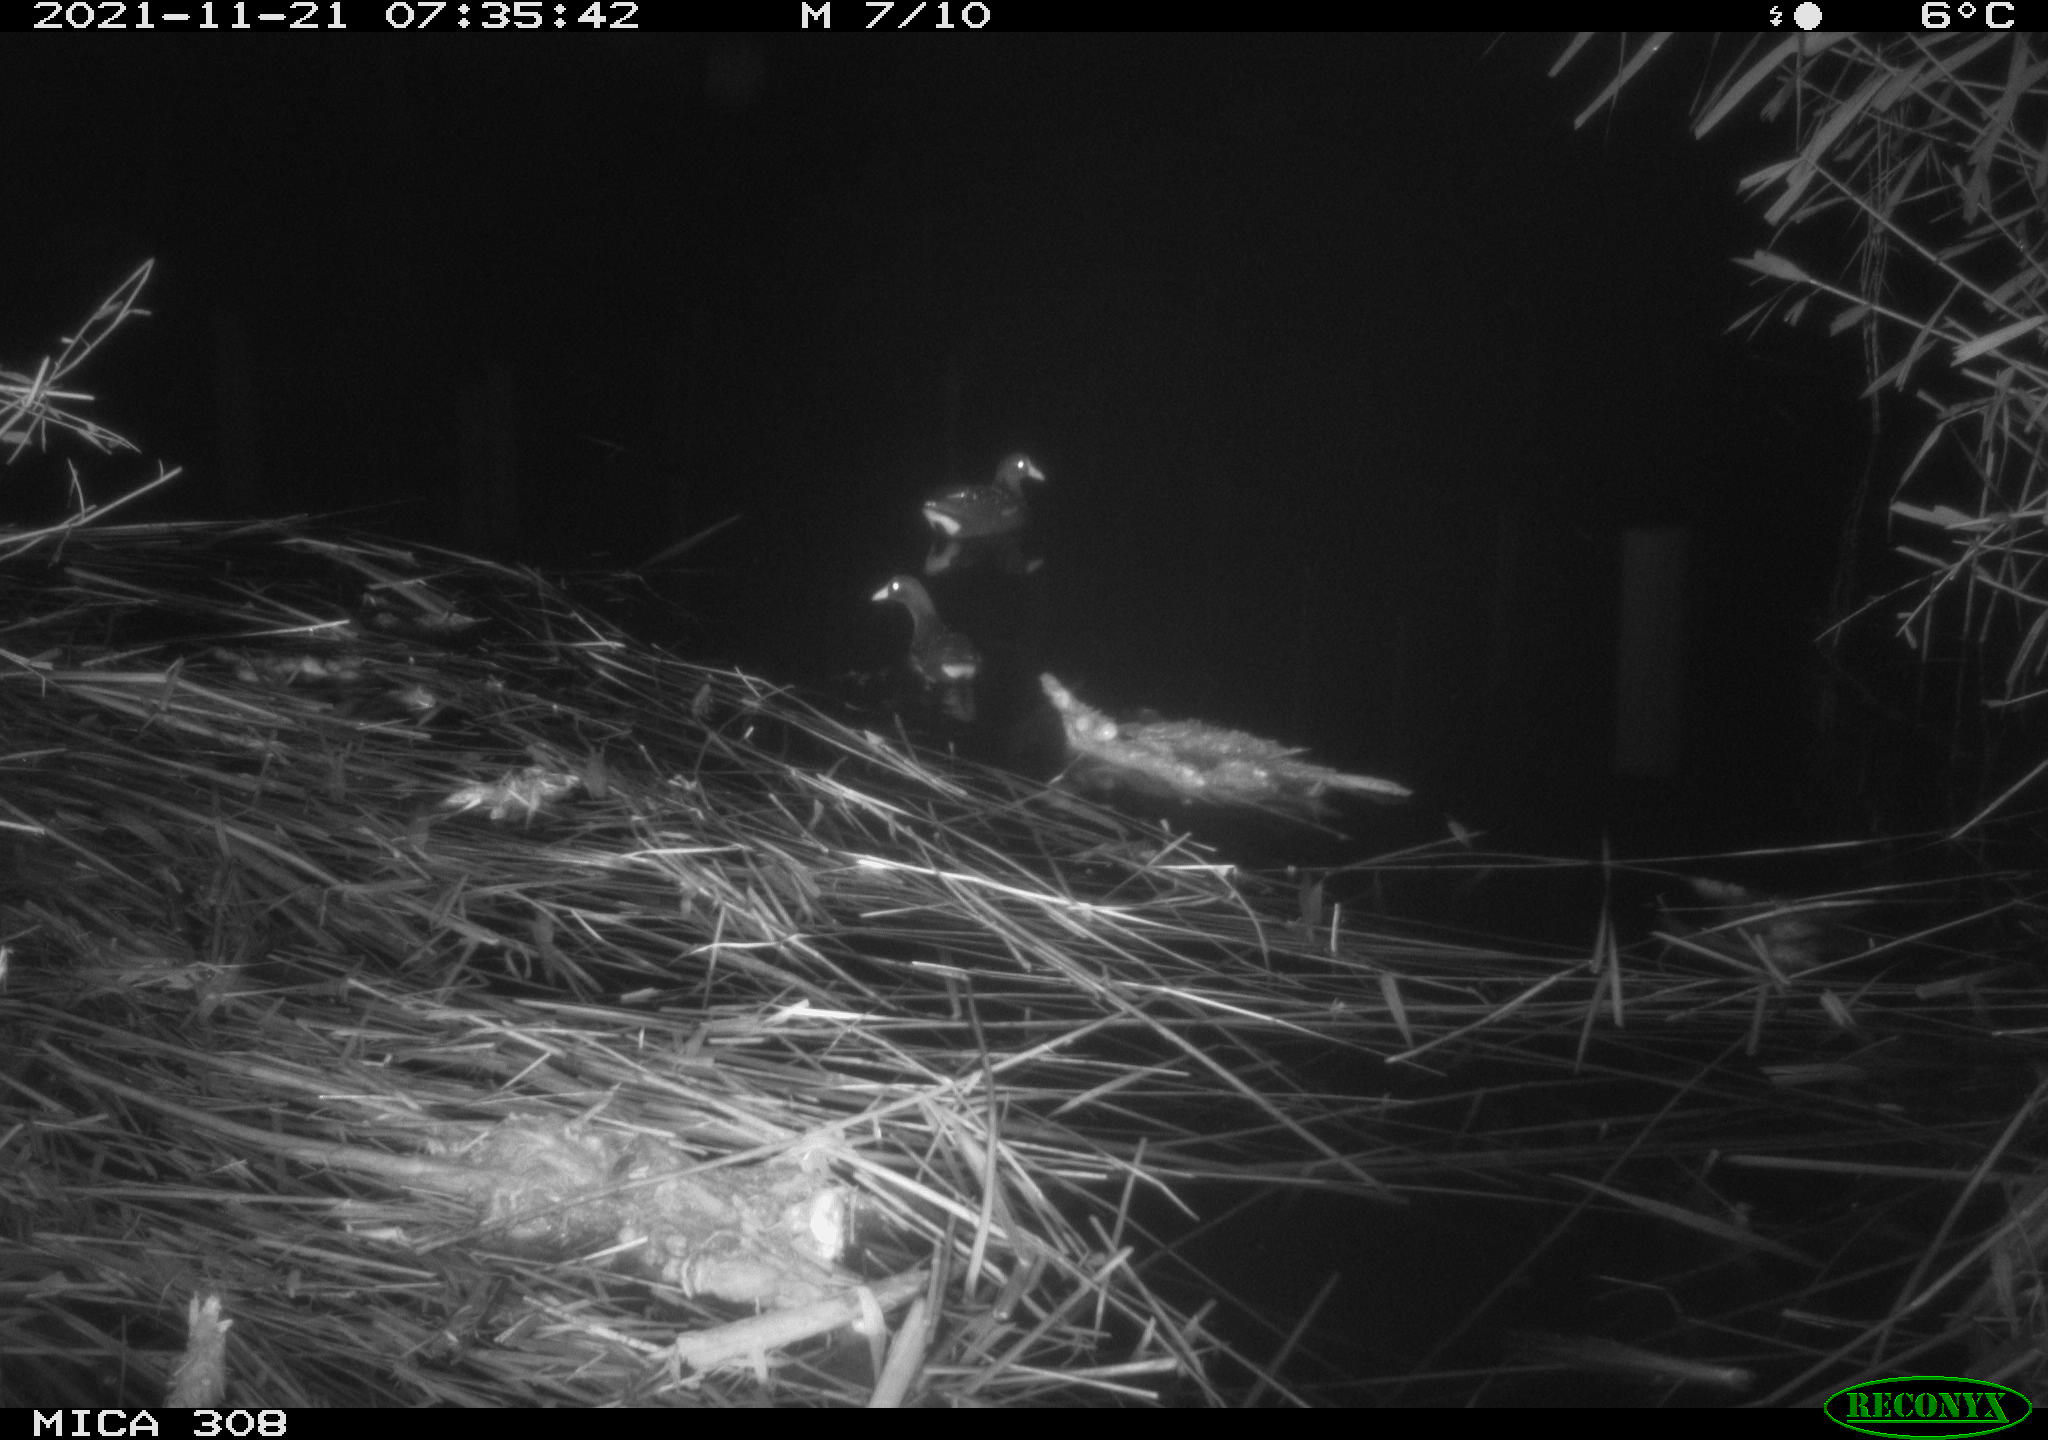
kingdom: Animalia
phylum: Chordata
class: Aves
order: Gruiformes
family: Rallidae
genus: Gallinula
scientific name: Gallinula chloropus
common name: Common moorhen
